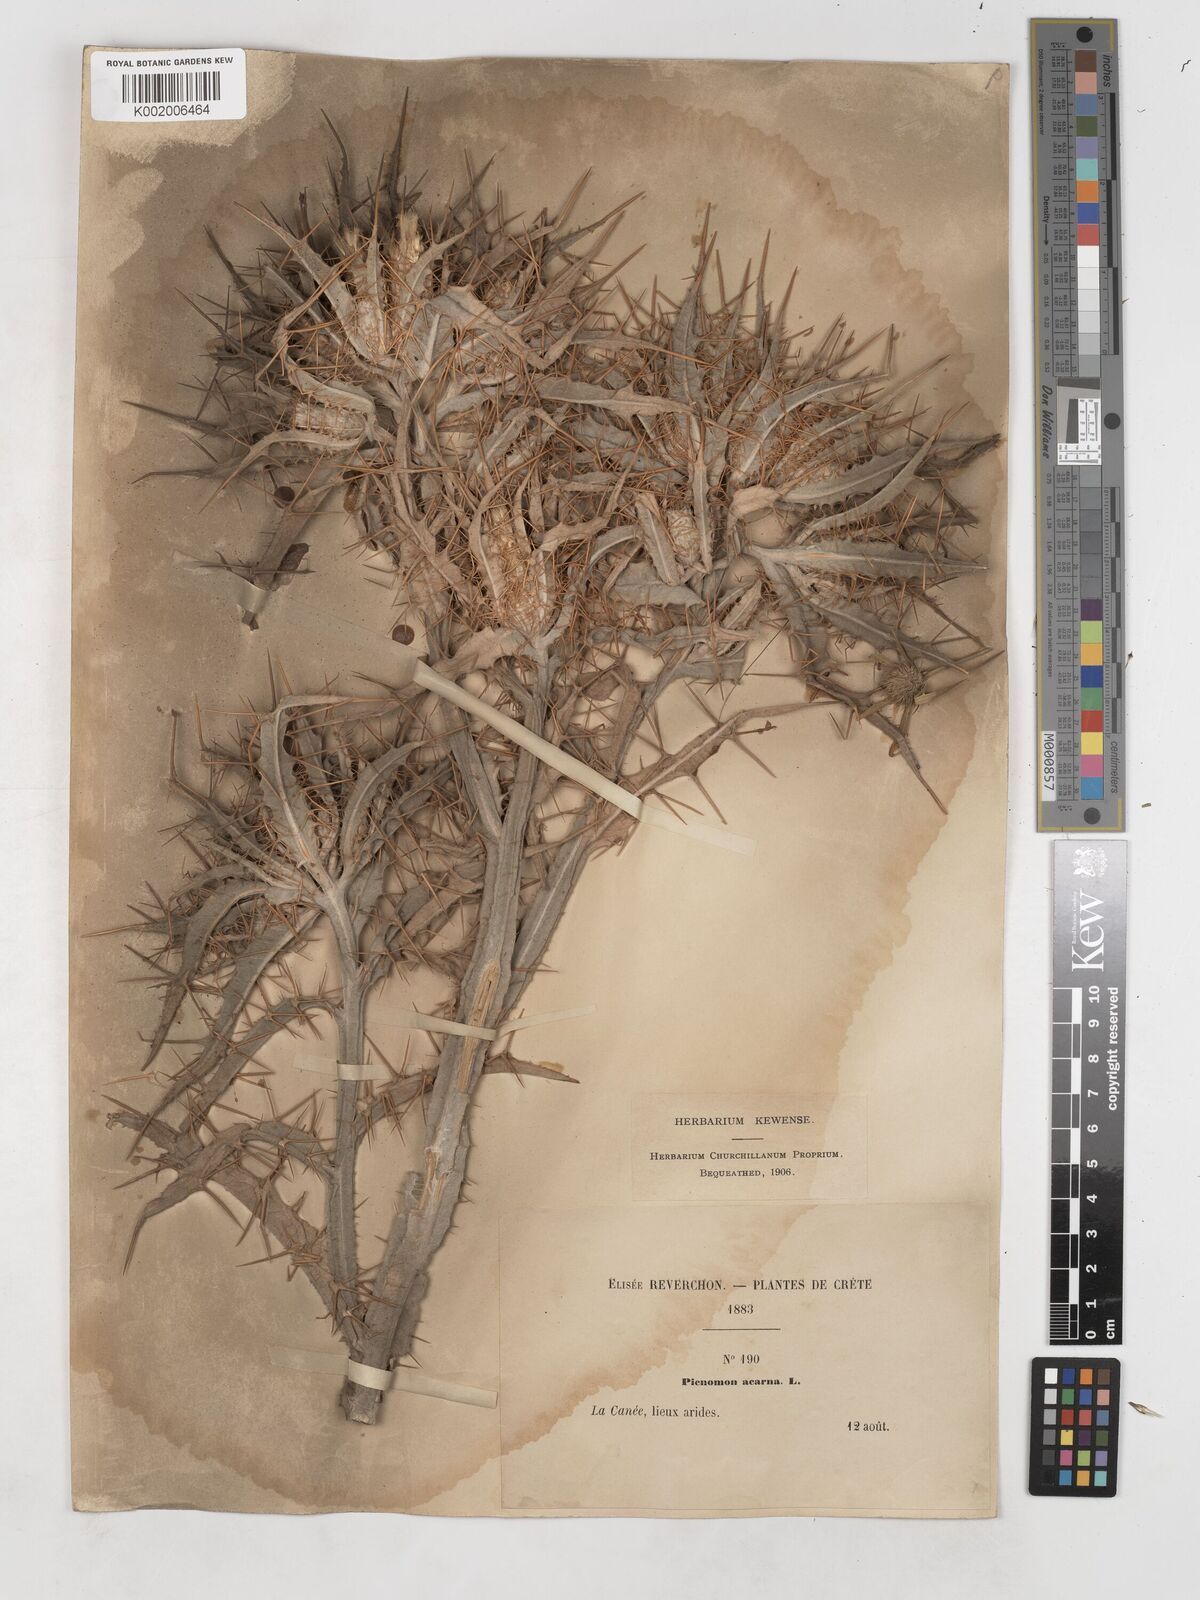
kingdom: Plantae
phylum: Tracheophyta
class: Magnoliopsida
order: Asterales
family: Asteraceae
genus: Picnomon
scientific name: Picnomon acarna
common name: Soldier thistle
